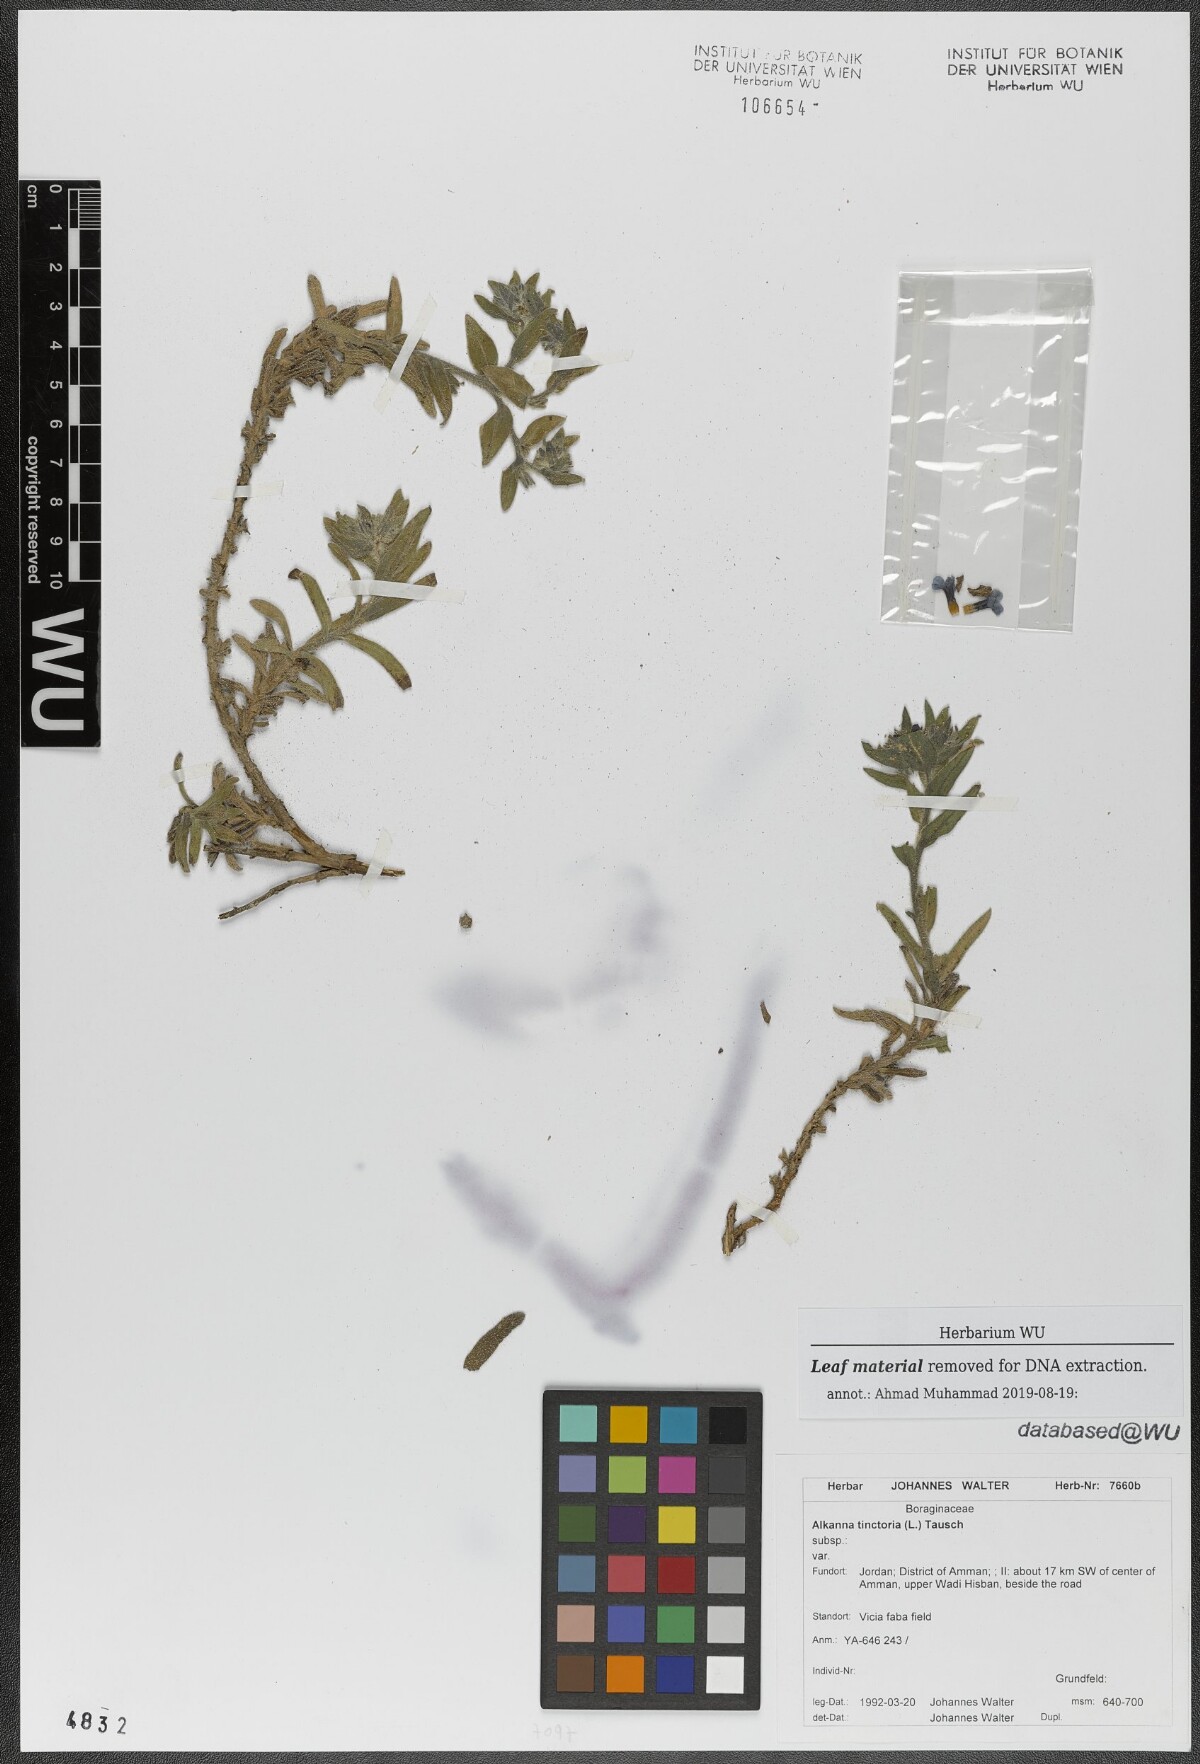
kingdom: Plantae
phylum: Tracheophyta
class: Magnoliopsida
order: Boraginales
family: Boraginaceae
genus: Alkanna
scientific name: Alkanna tinctoria
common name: Dyer's-alkanet
